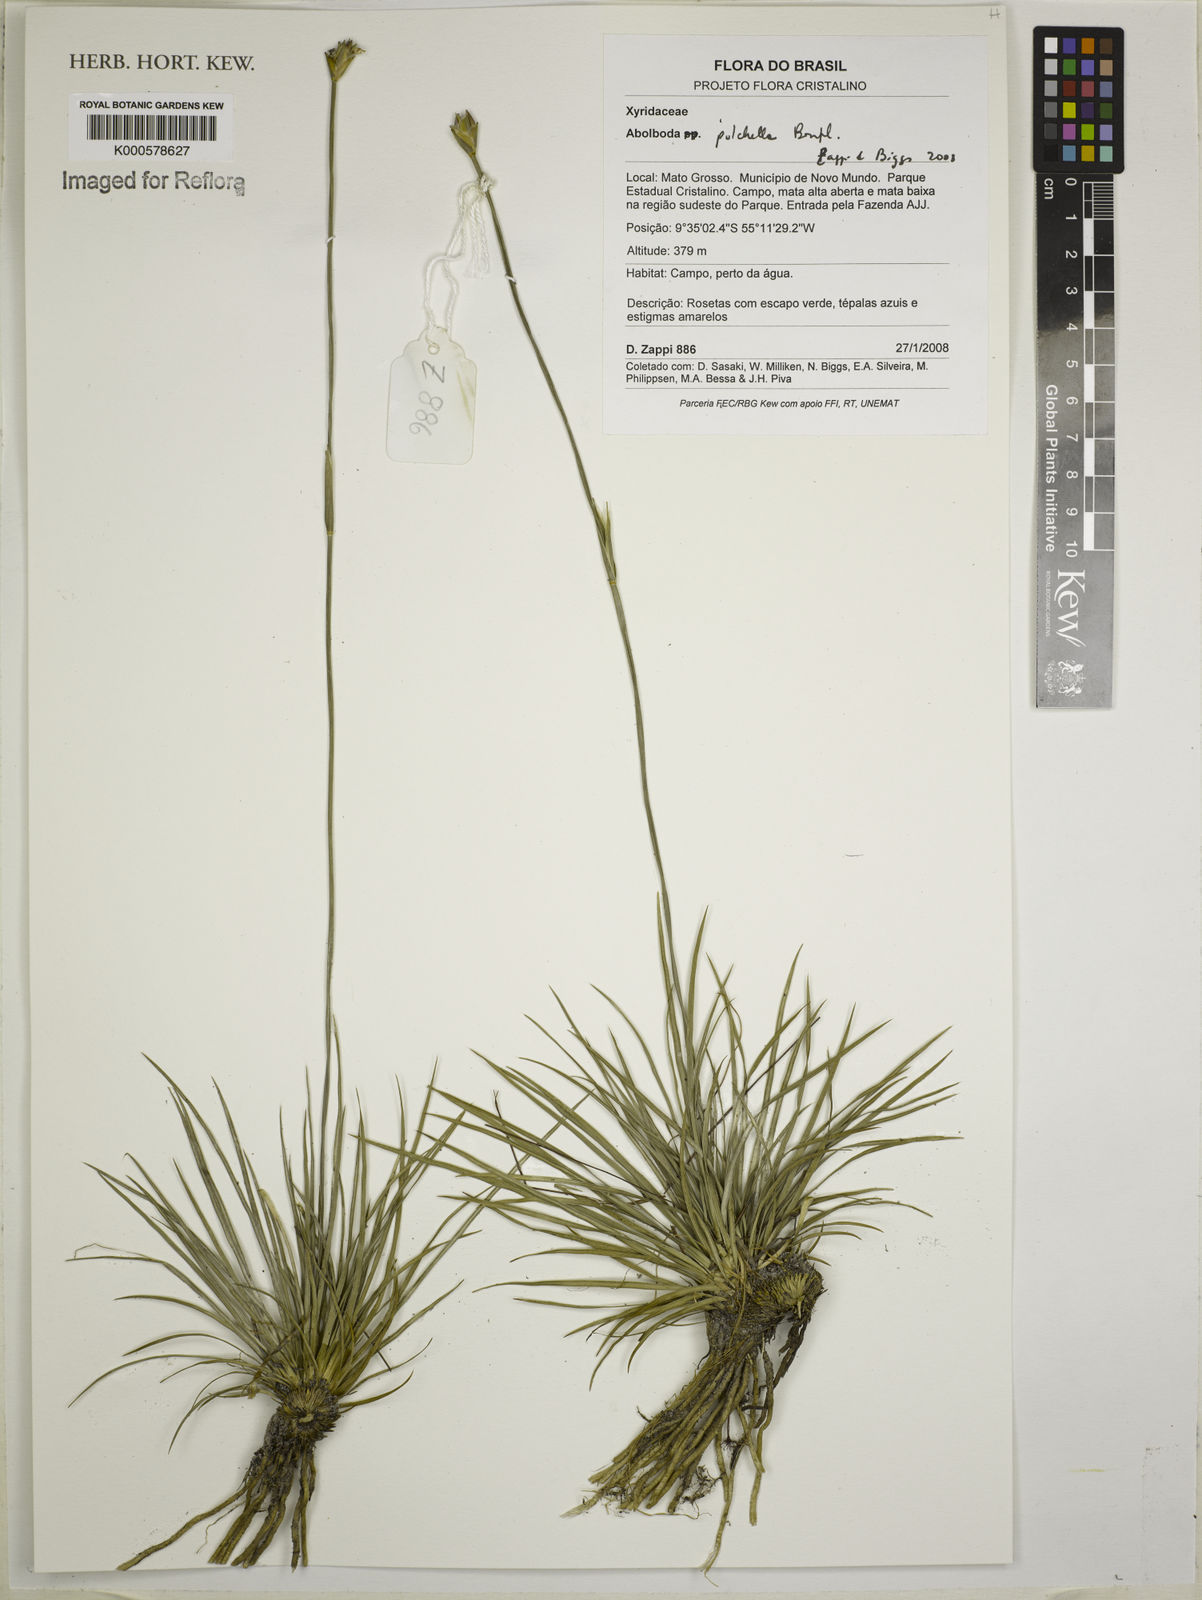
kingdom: Plantae
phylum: Tracheophyta
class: Liliopsida
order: Poales
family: Xyridaceae
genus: Abolboda
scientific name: Abolboda pulchella
